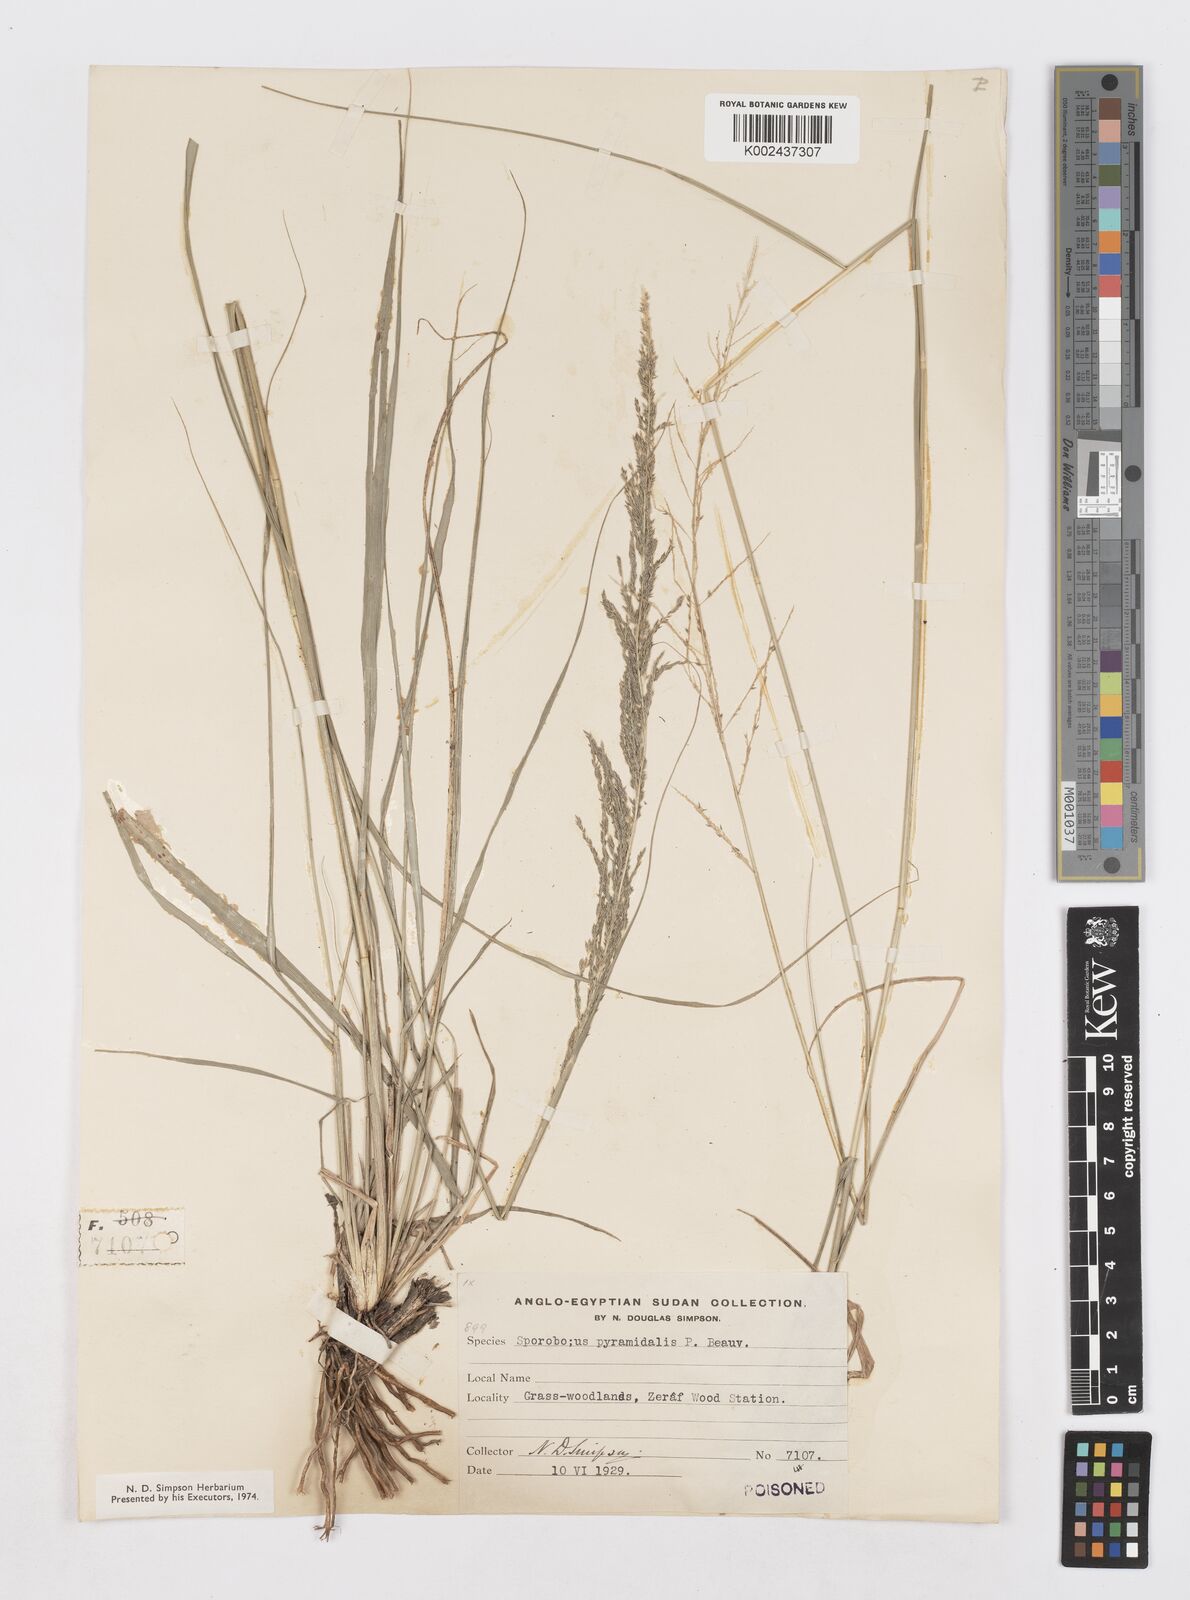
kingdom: Plantae
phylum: Tracheophyta
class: Liliopsida
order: Poales
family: Poaceae
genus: Sporobolus
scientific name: Sporobolus pyramidalis
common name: West indian dropseed
